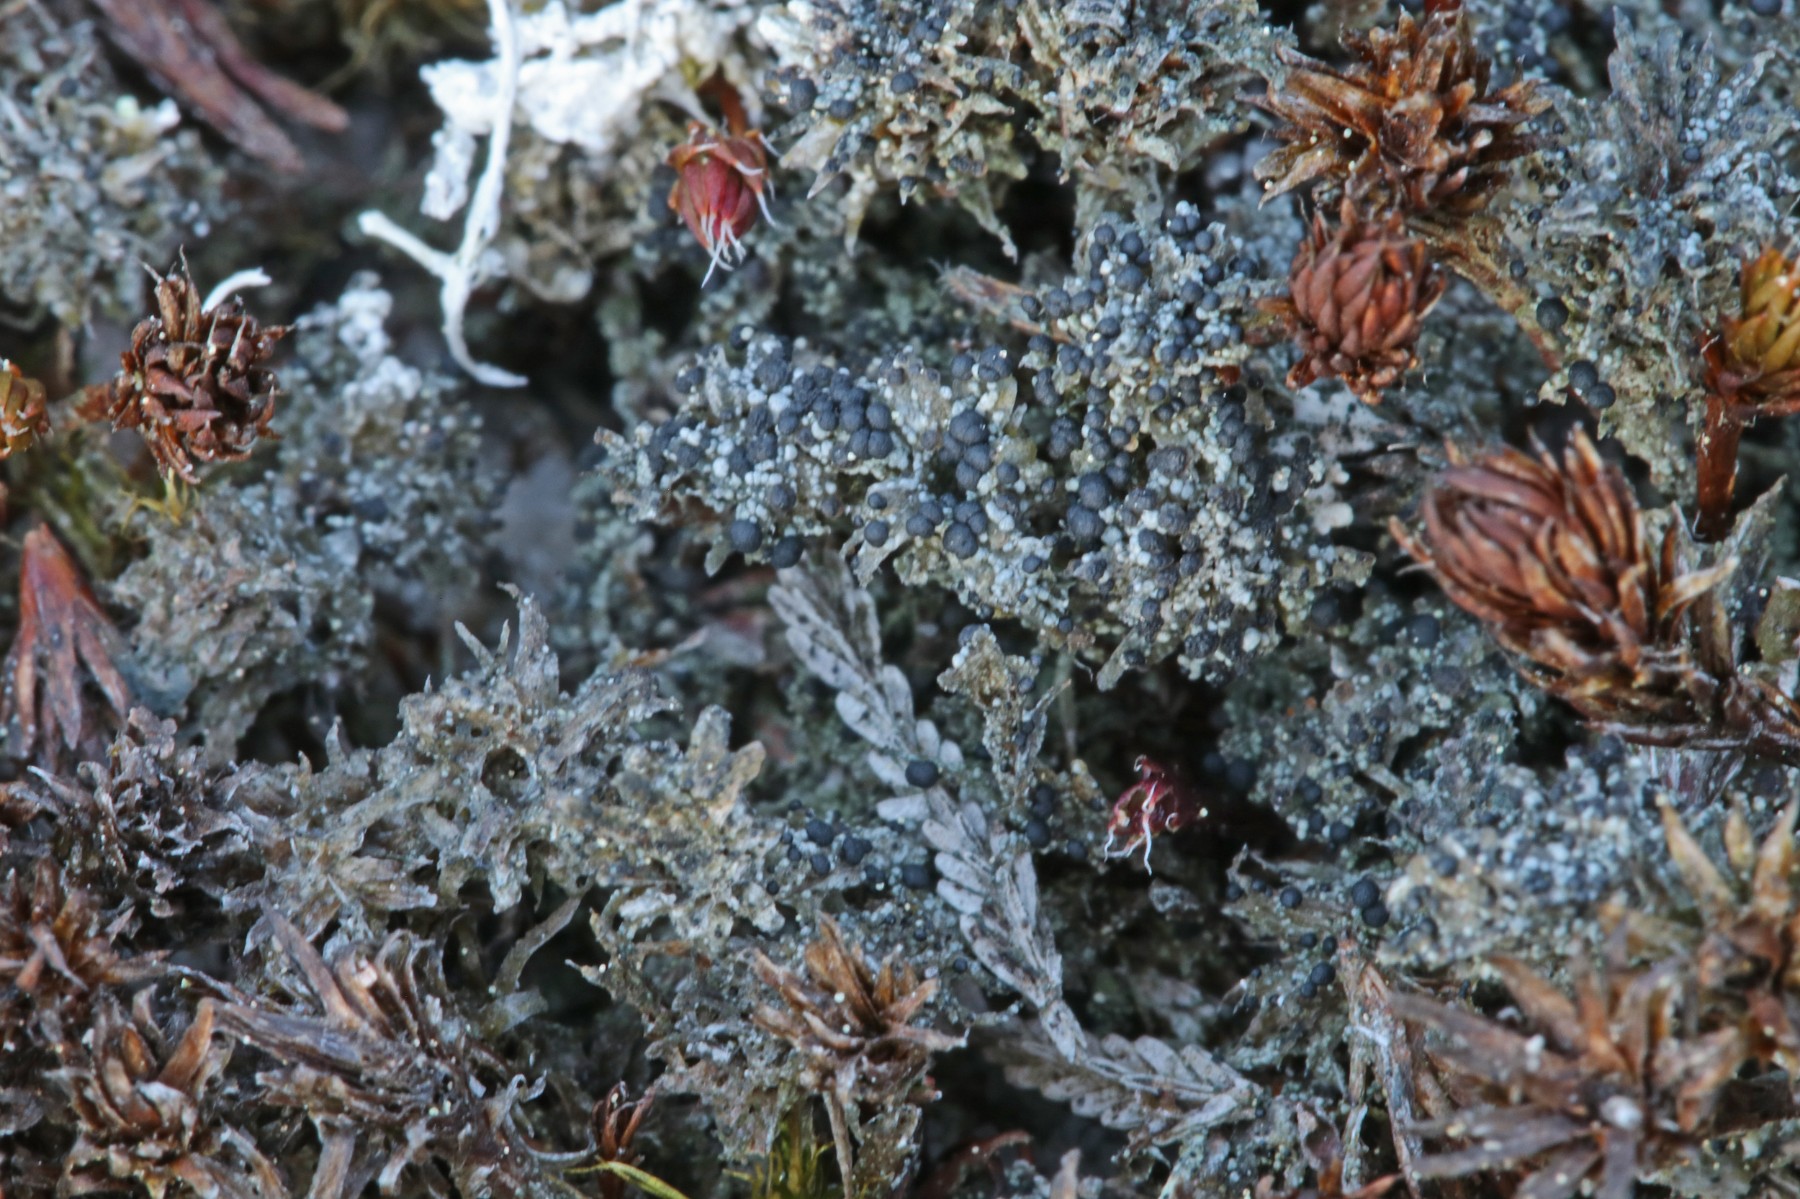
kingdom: Fungi
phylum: Ascomycota
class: Lecanoromycetes
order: Lecanorales
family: Byssolomataceae
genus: Micarea
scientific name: Micarea lignaria
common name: tørve-knaplav
